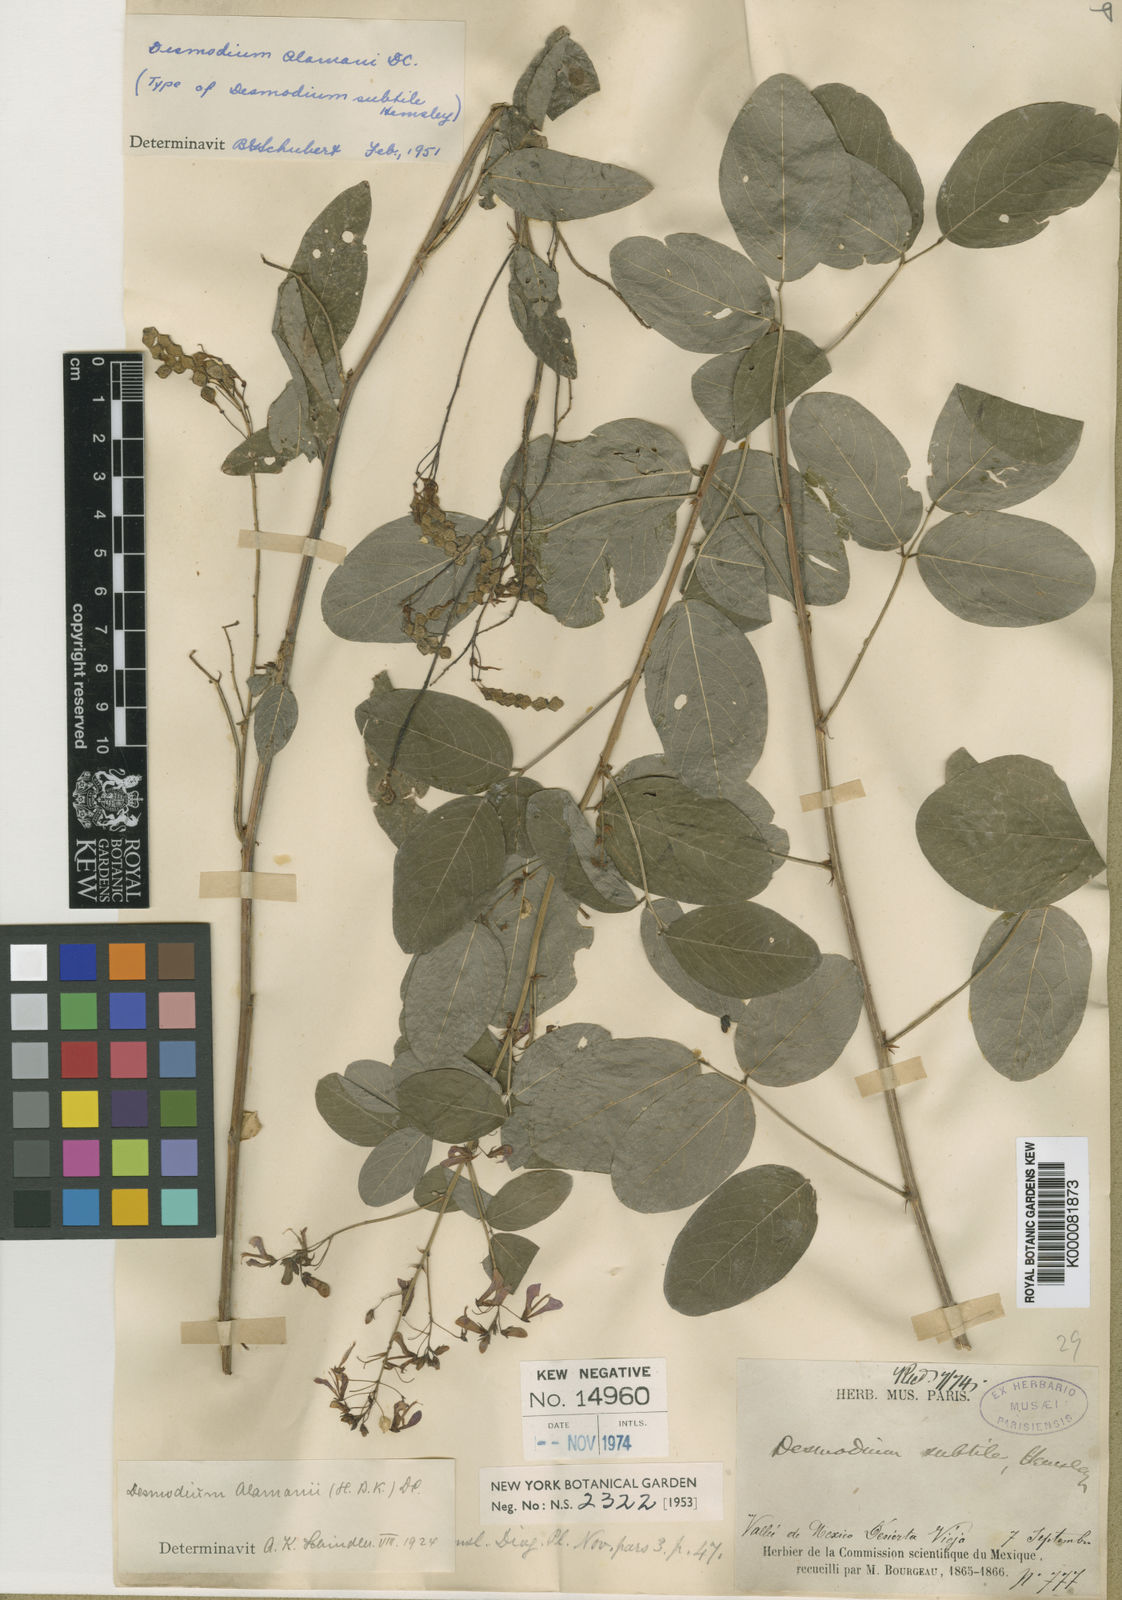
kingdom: Plantae
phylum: Tracheophyta
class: Magnoliopsida
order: Fabales
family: Fabaceae
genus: Desmodium
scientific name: Desmodium subtile
